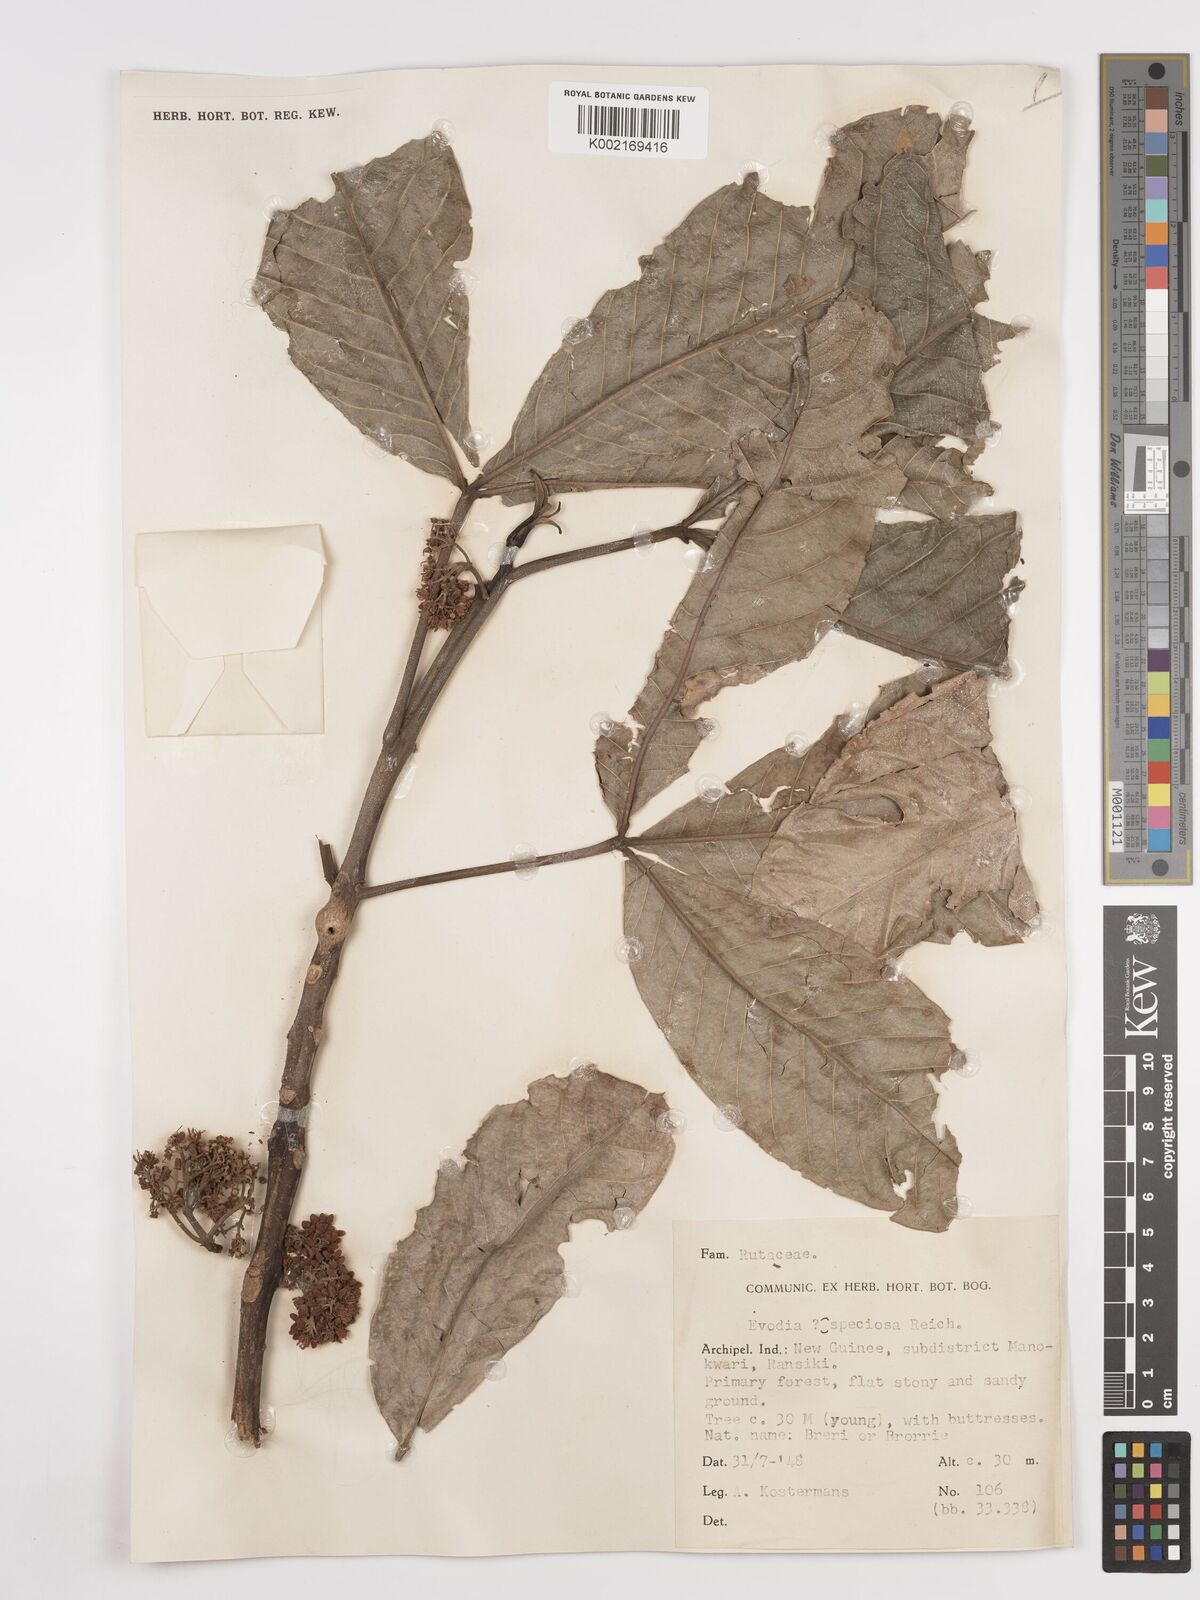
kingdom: Plantae
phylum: Tracheophyta
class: Magnoliopsida
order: Sapindales
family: Rutaceae
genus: Melicope
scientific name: Melicope bonwickii
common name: Yellow corkwood
